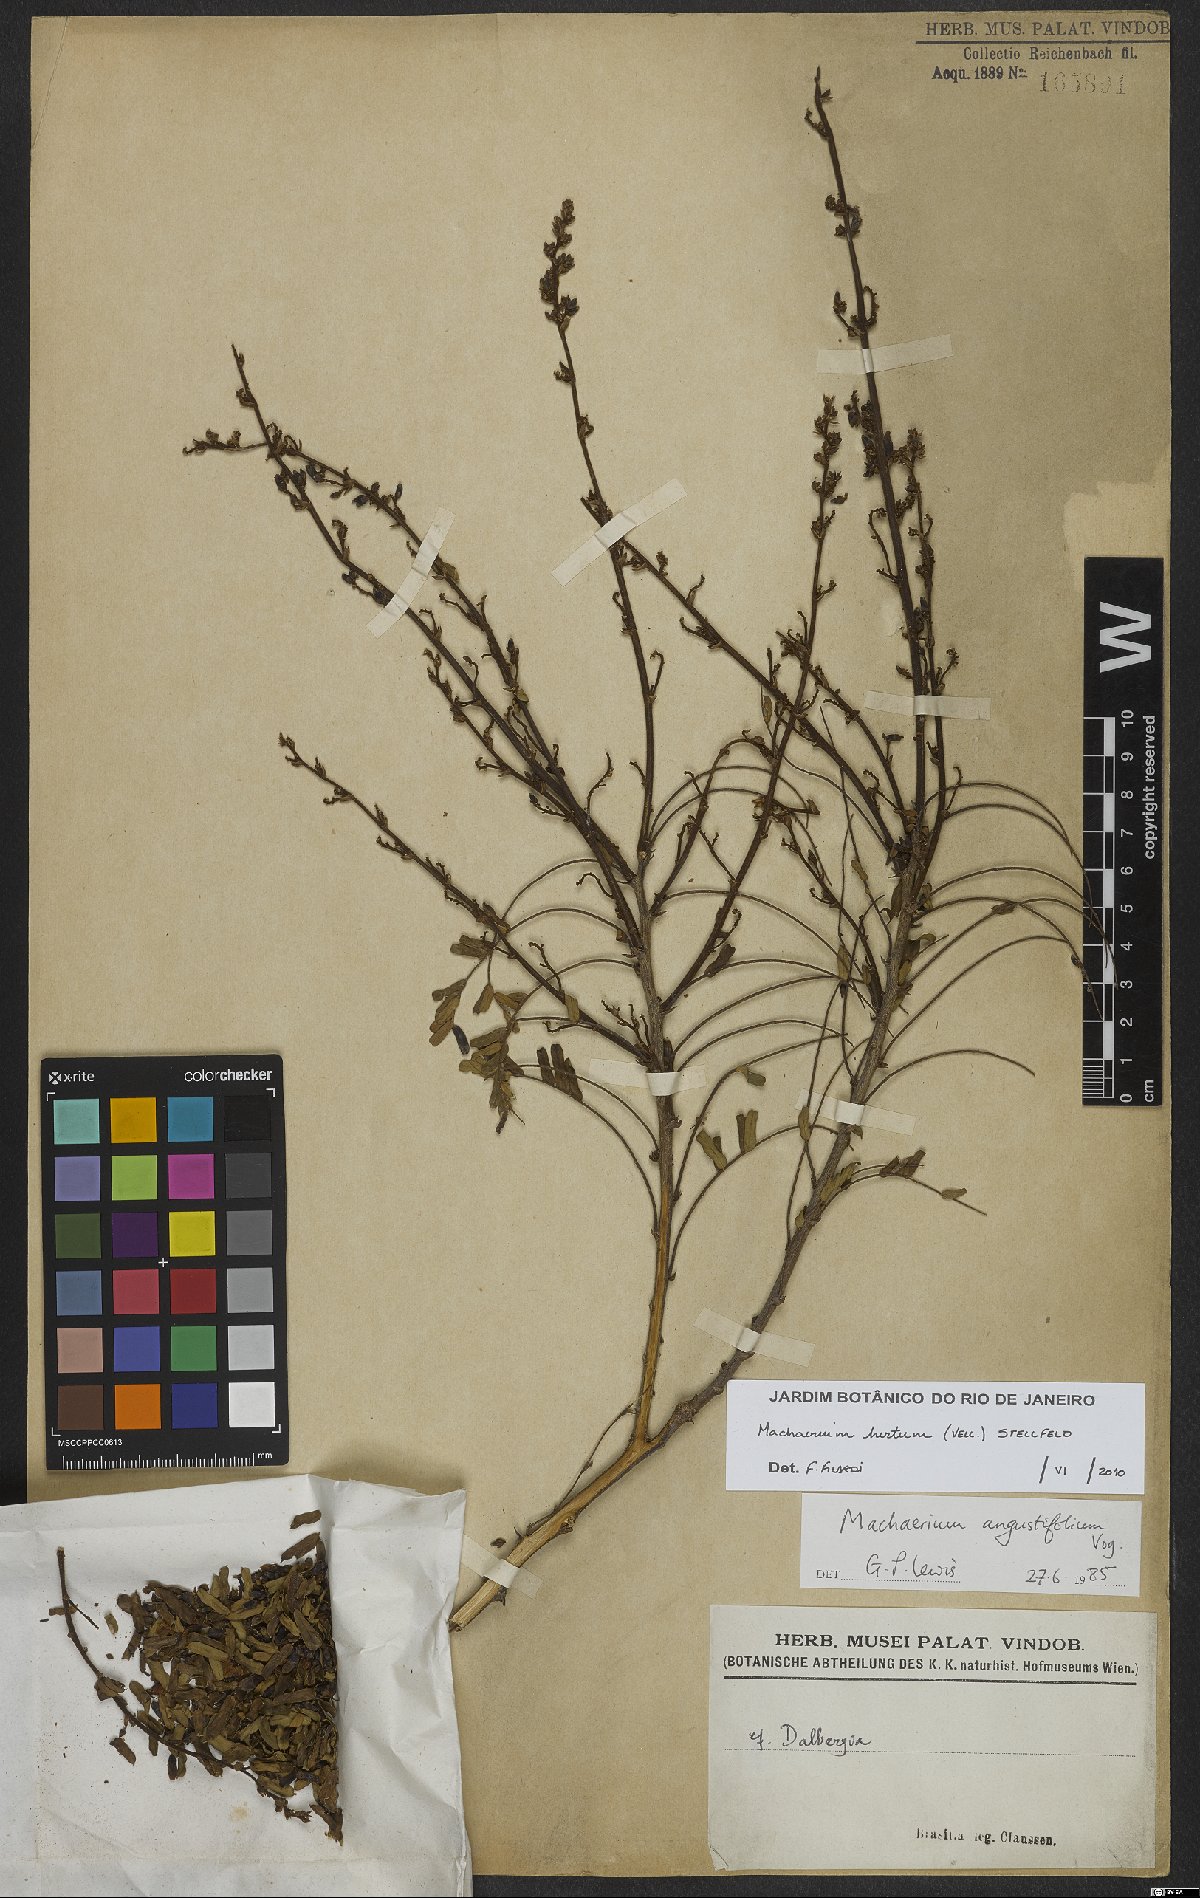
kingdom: Plantae
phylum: Tracheophyta
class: Magnoliopsida
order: Fabales
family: Fabaceae
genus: Machaerium
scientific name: Machaerium hirtum
